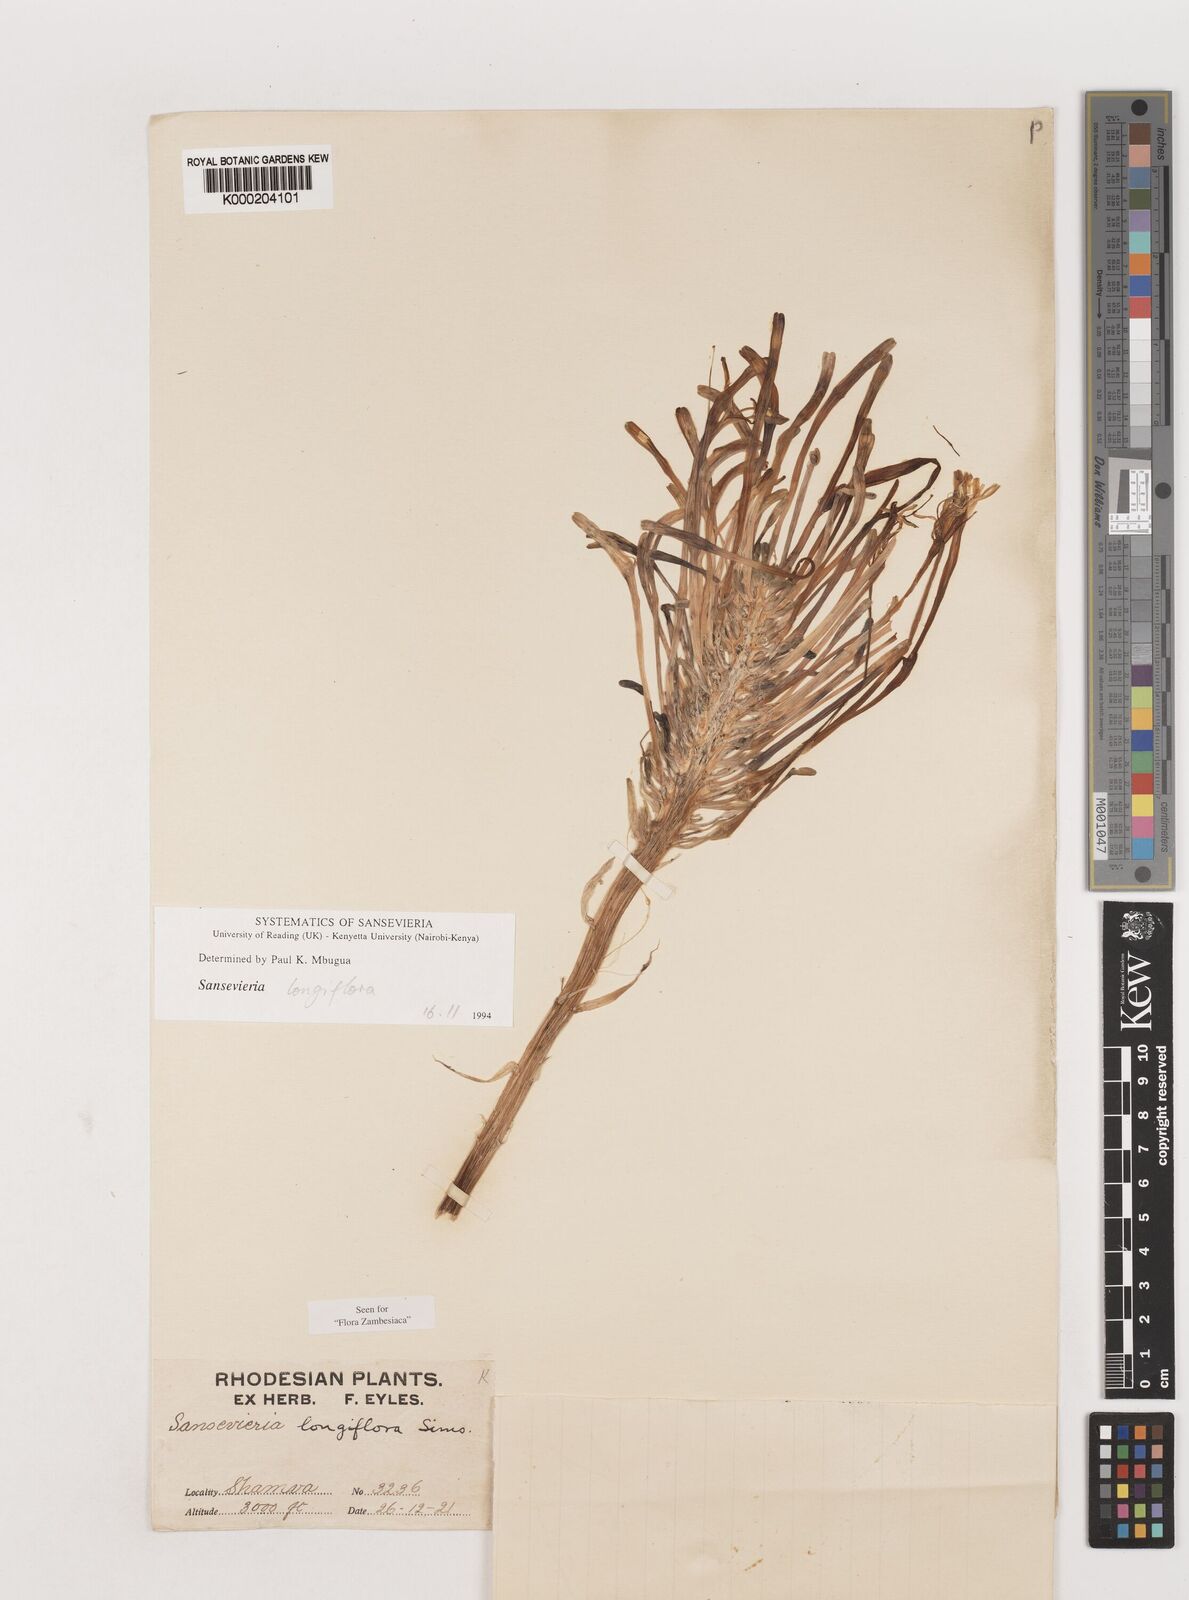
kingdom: Plantae
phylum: Tracheophyta
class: Liliopsida
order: Asparagales
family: Asparagaceae
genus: Dracaena
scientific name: Dracaena longiflora
